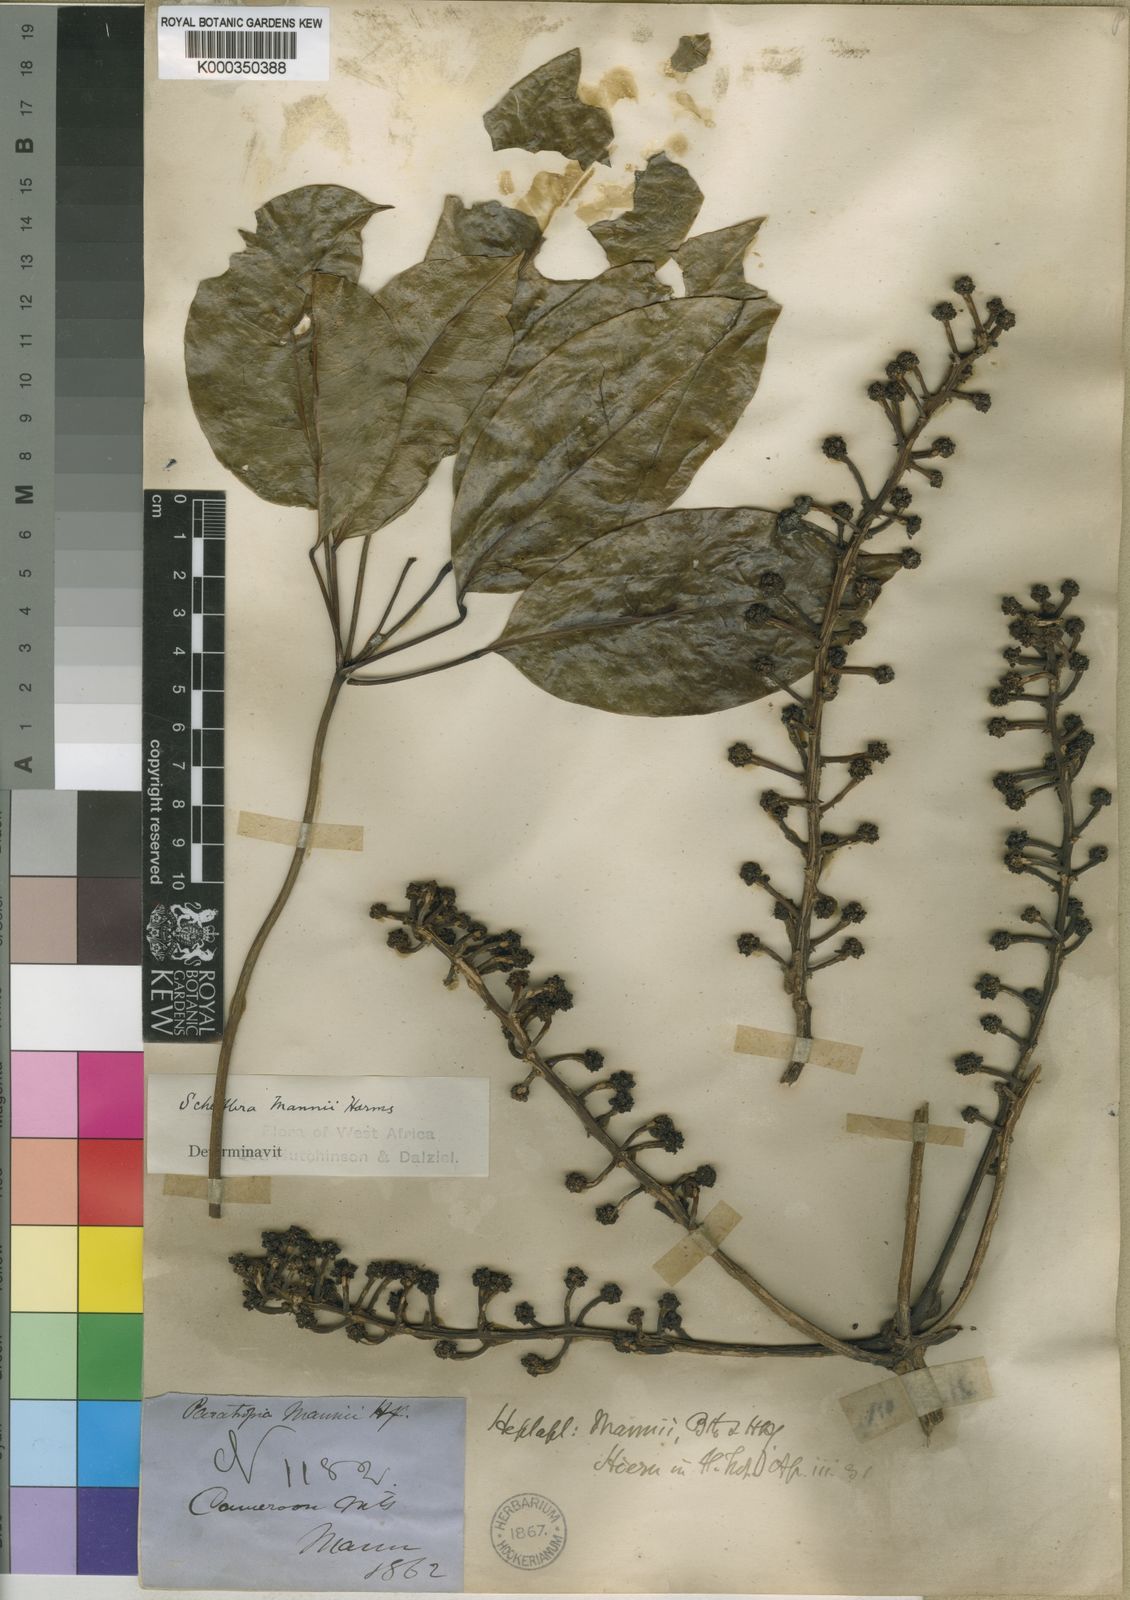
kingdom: Plantae
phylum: Tracheophyta
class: Magnoliopsida
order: Apiales
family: Araliaceae
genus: Astropanax
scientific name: Astropanax mannii
